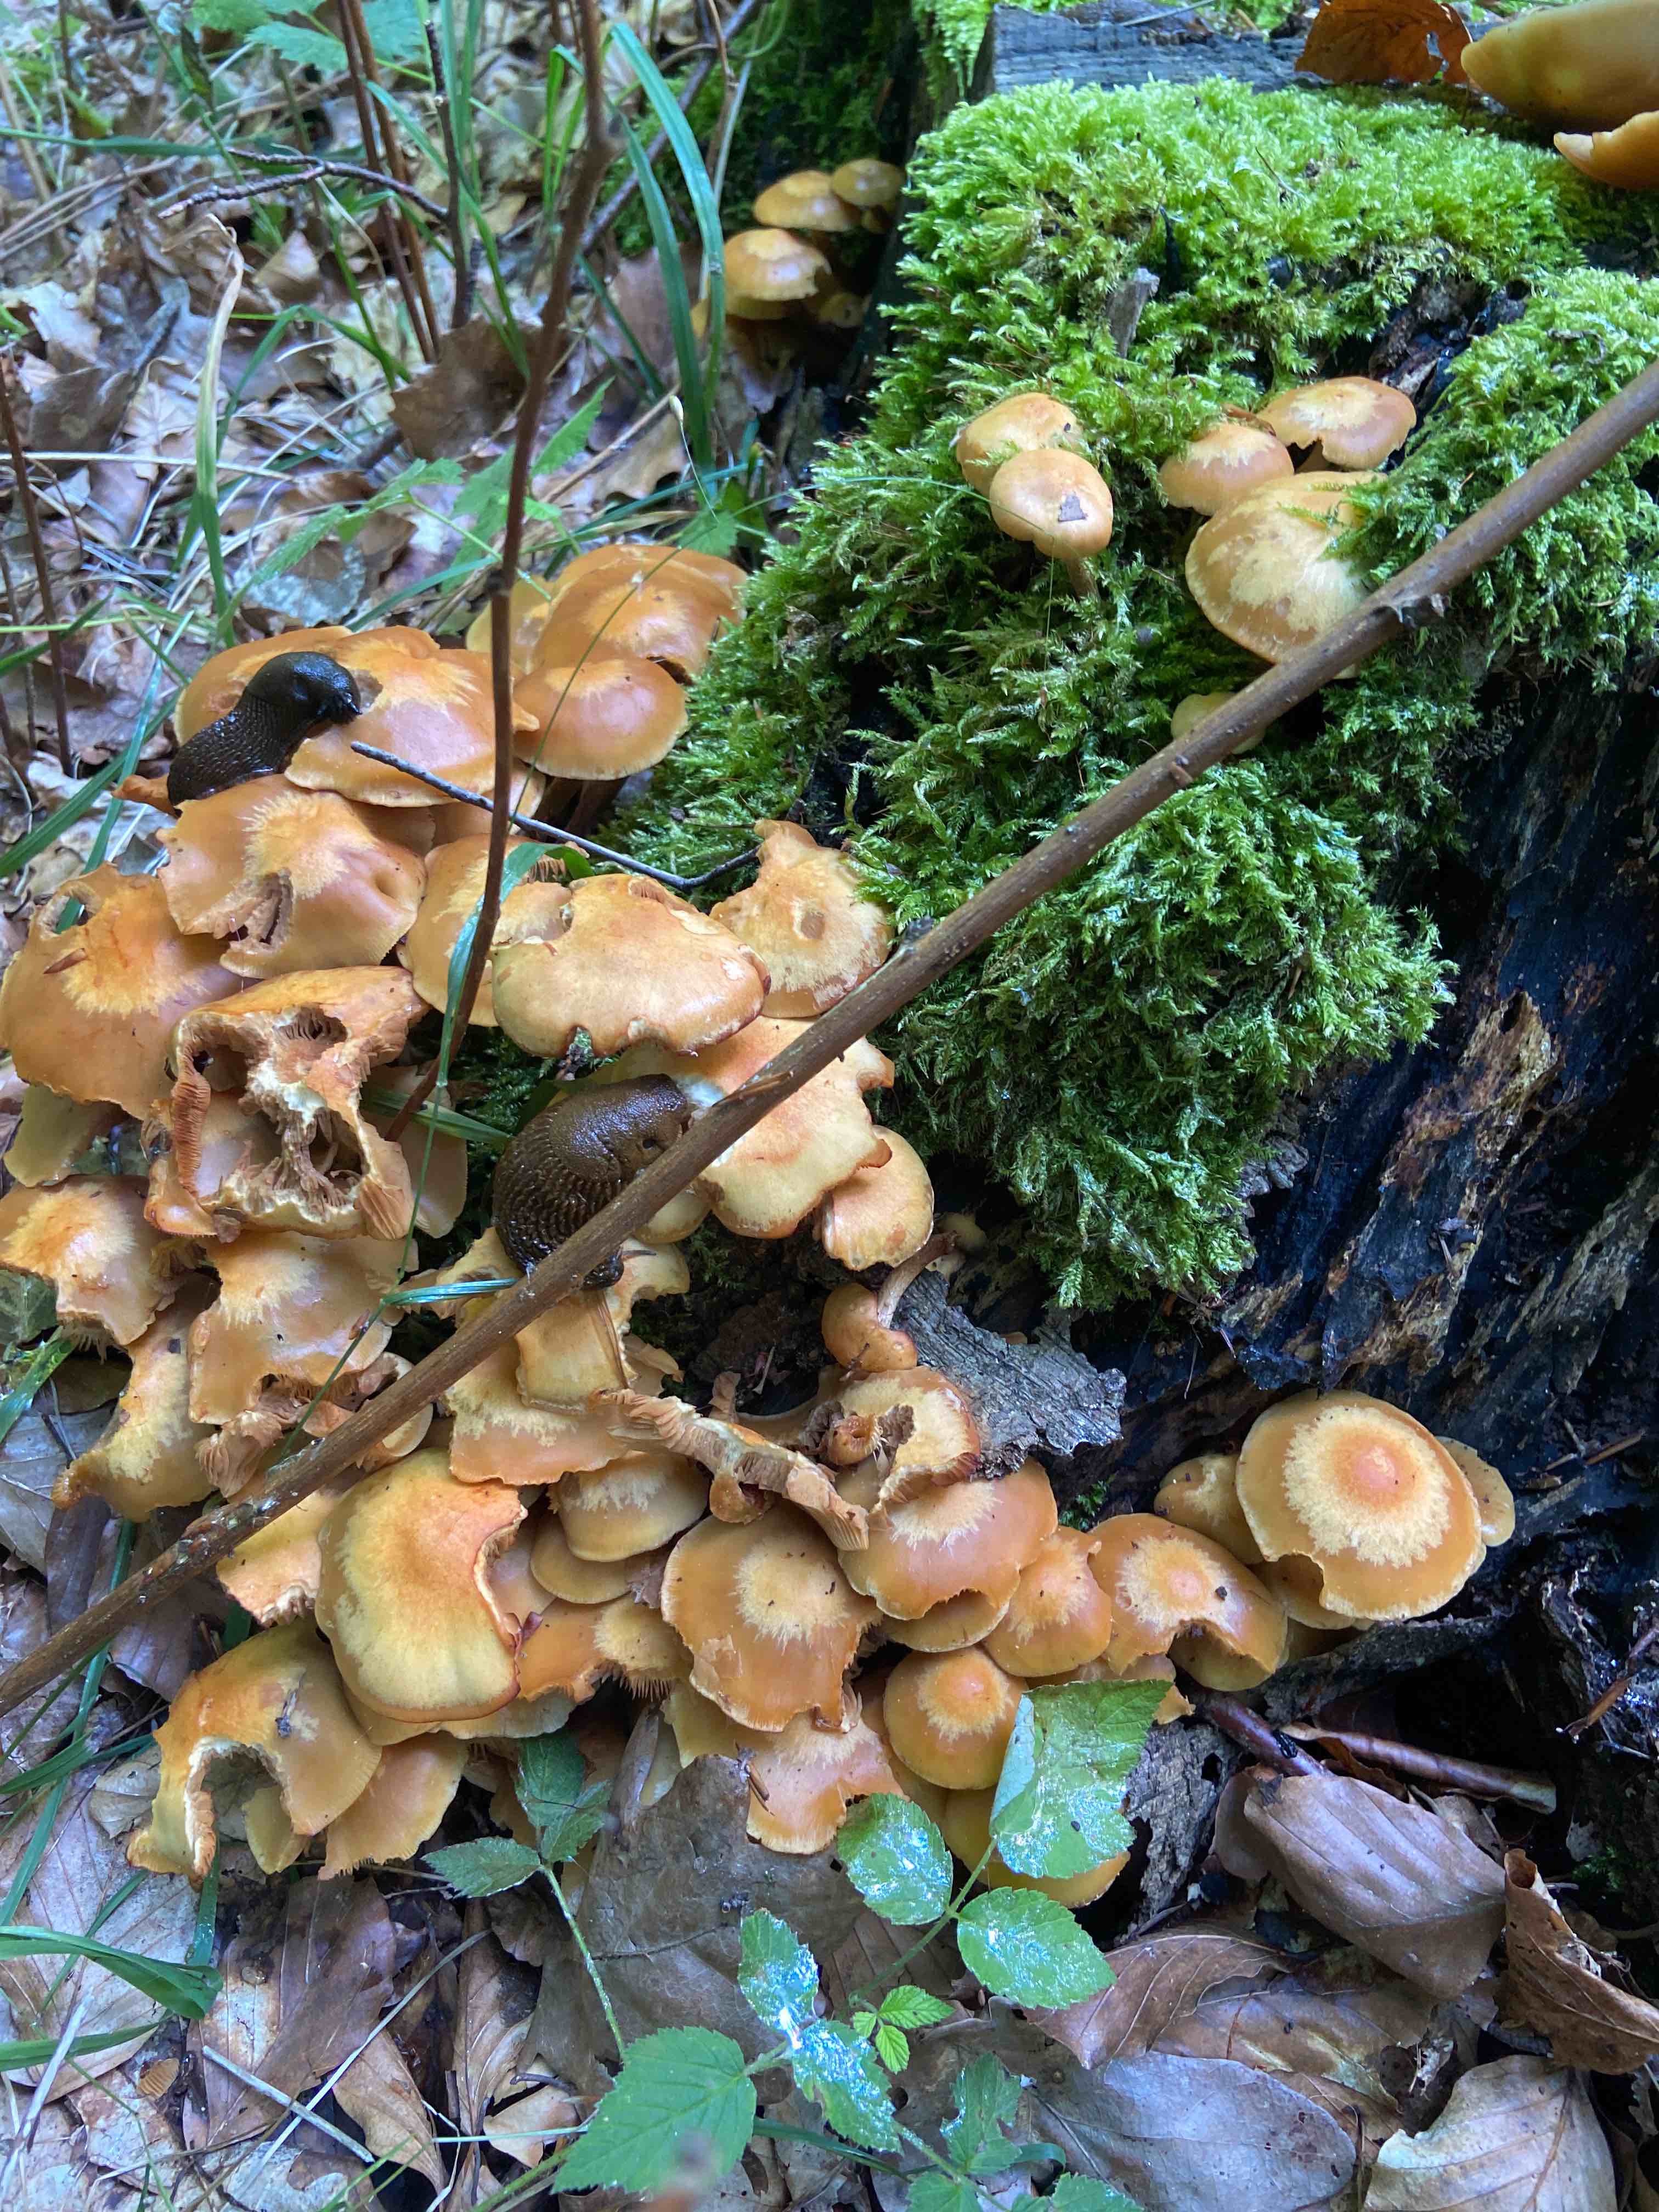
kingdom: Fungi
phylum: Basidiomycota
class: Agaricomycetes
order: Agaricales
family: Strophariaceae
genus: Kuehneromyces
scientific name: Kuehneromyces mutabilis
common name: foranderlig skælhat
